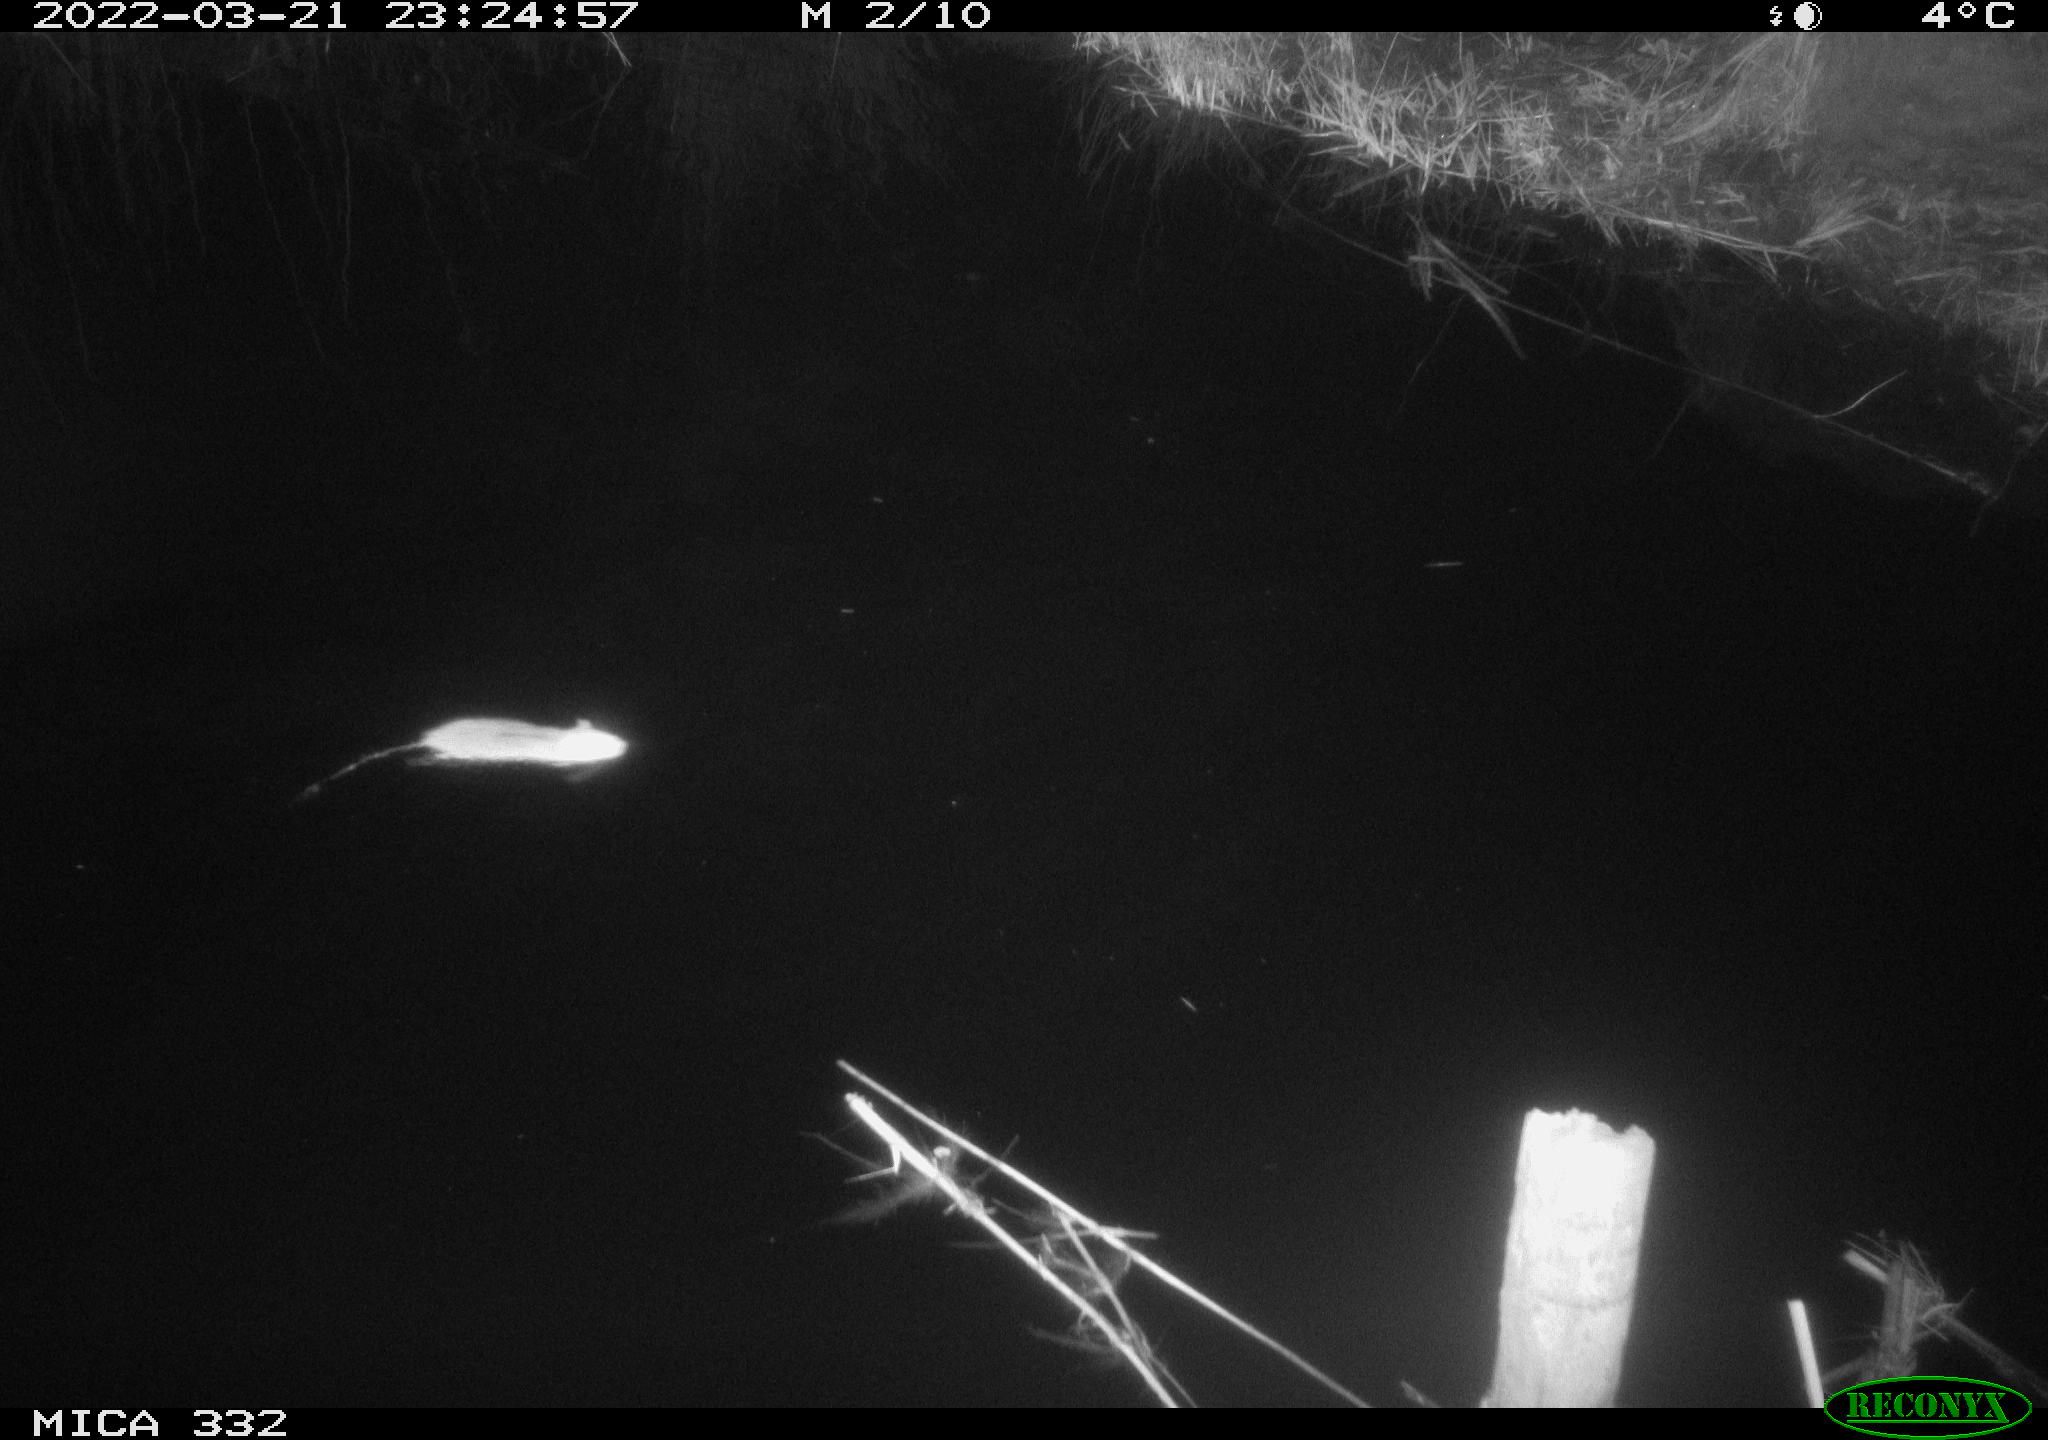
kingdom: Animalia
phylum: Chordata
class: Mammalia
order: Rodentia
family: Muridae
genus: Rattus
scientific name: Rattus norvegicus
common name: Brown rat
